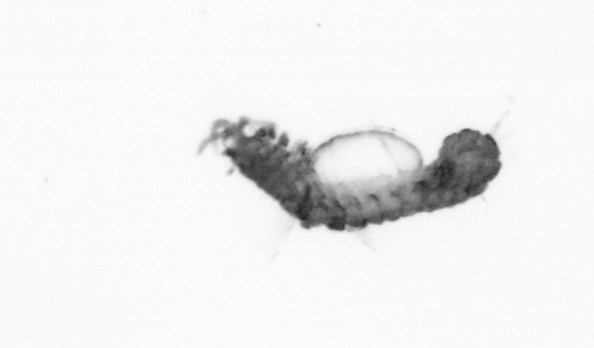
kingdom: Animalia
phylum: Annelida
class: Polychaeta
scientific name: Polychaeta
